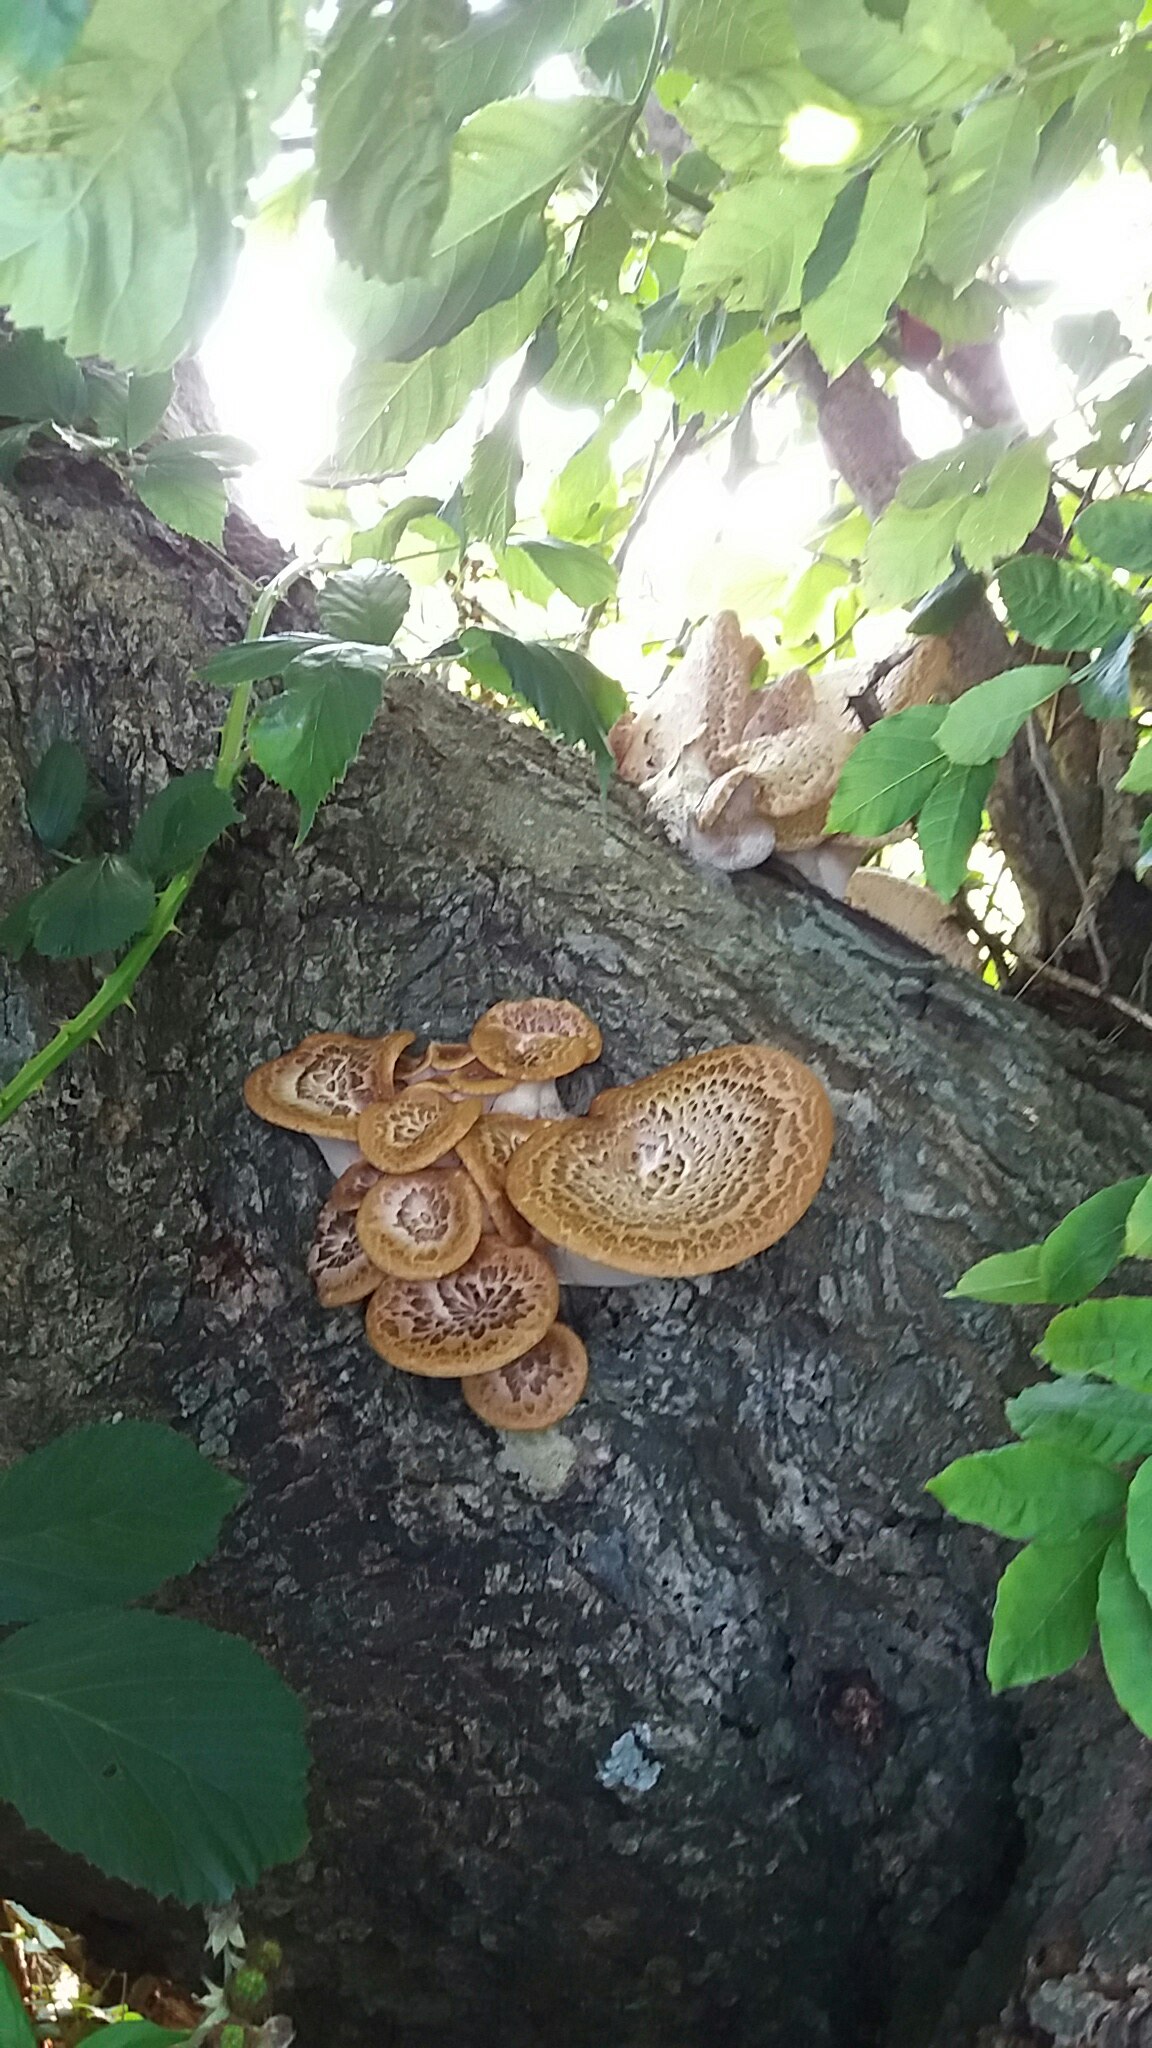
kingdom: Fungi
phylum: Basidiomycota
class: Agaricomycetes
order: Polyporales
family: Polyporaceae
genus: Cerioporus
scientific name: Cerioporus squamosus
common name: skællet stilkporesvamp
